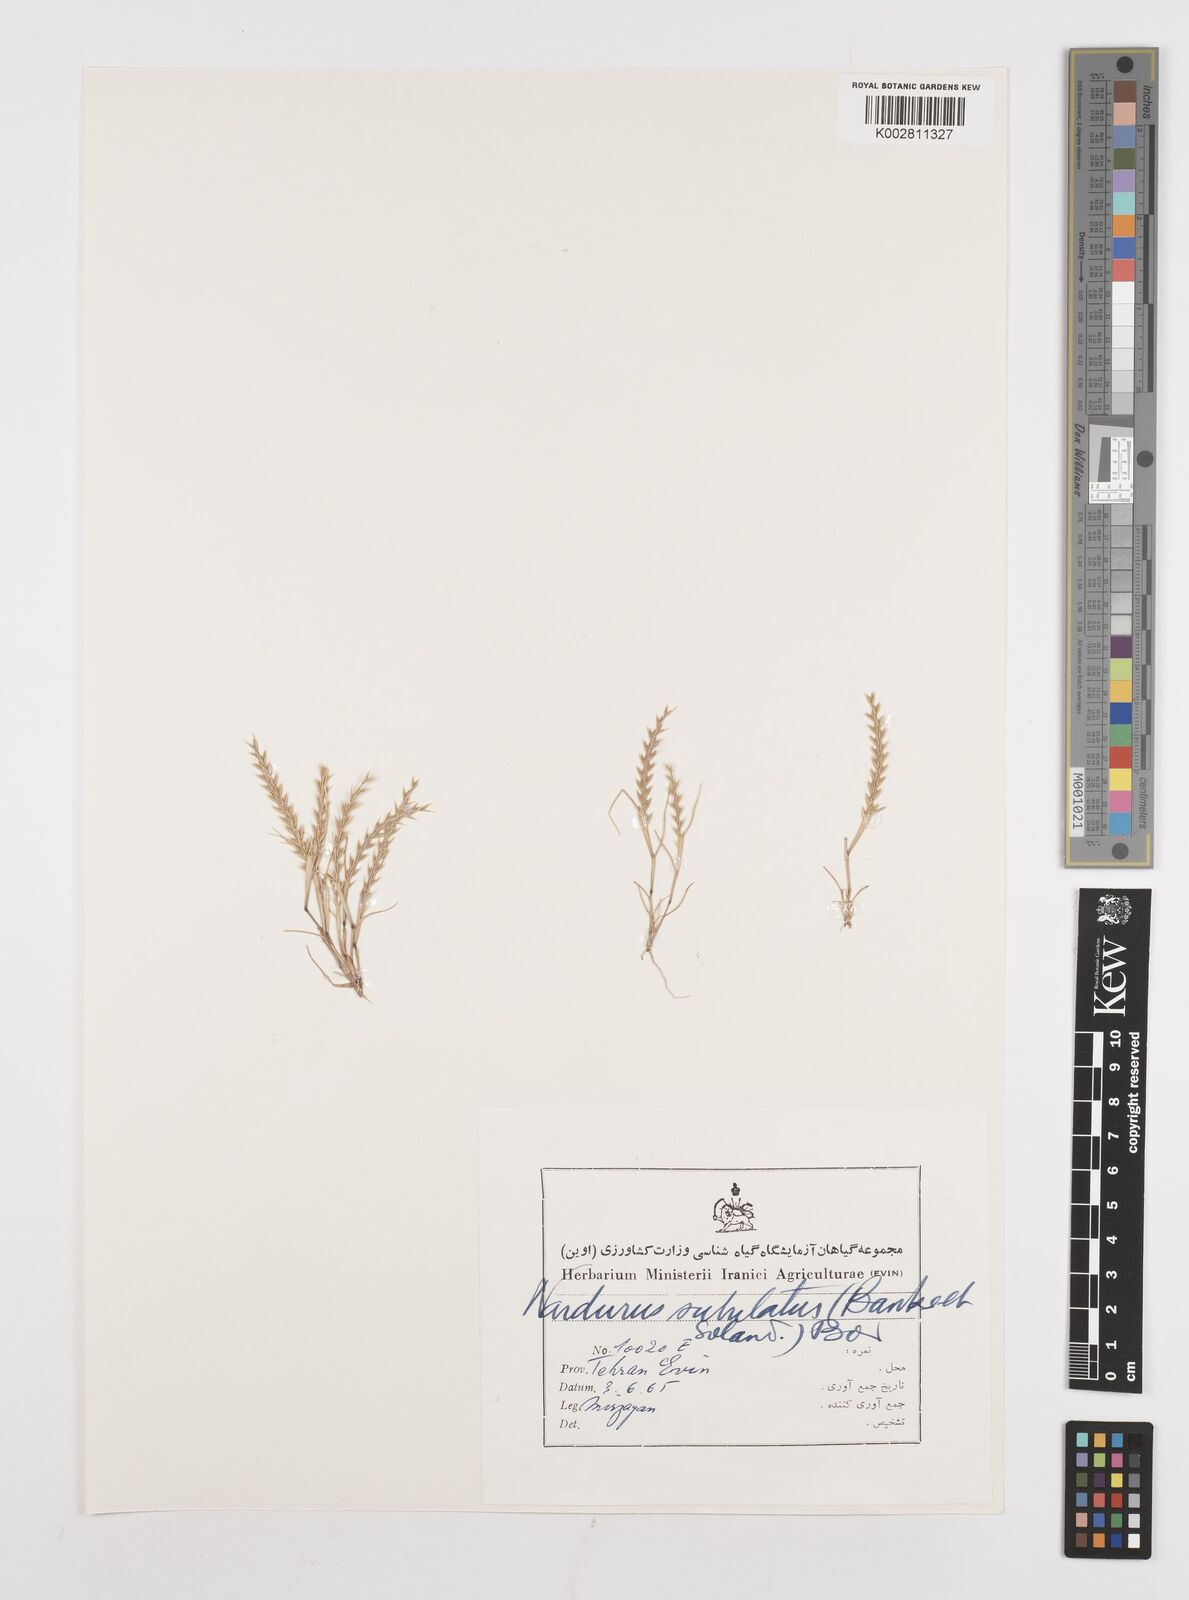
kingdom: Plantae
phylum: Tracheophyta
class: Liliopsida
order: Poales
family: Poaceae
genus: Festuca
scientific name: Festuca orientalis
